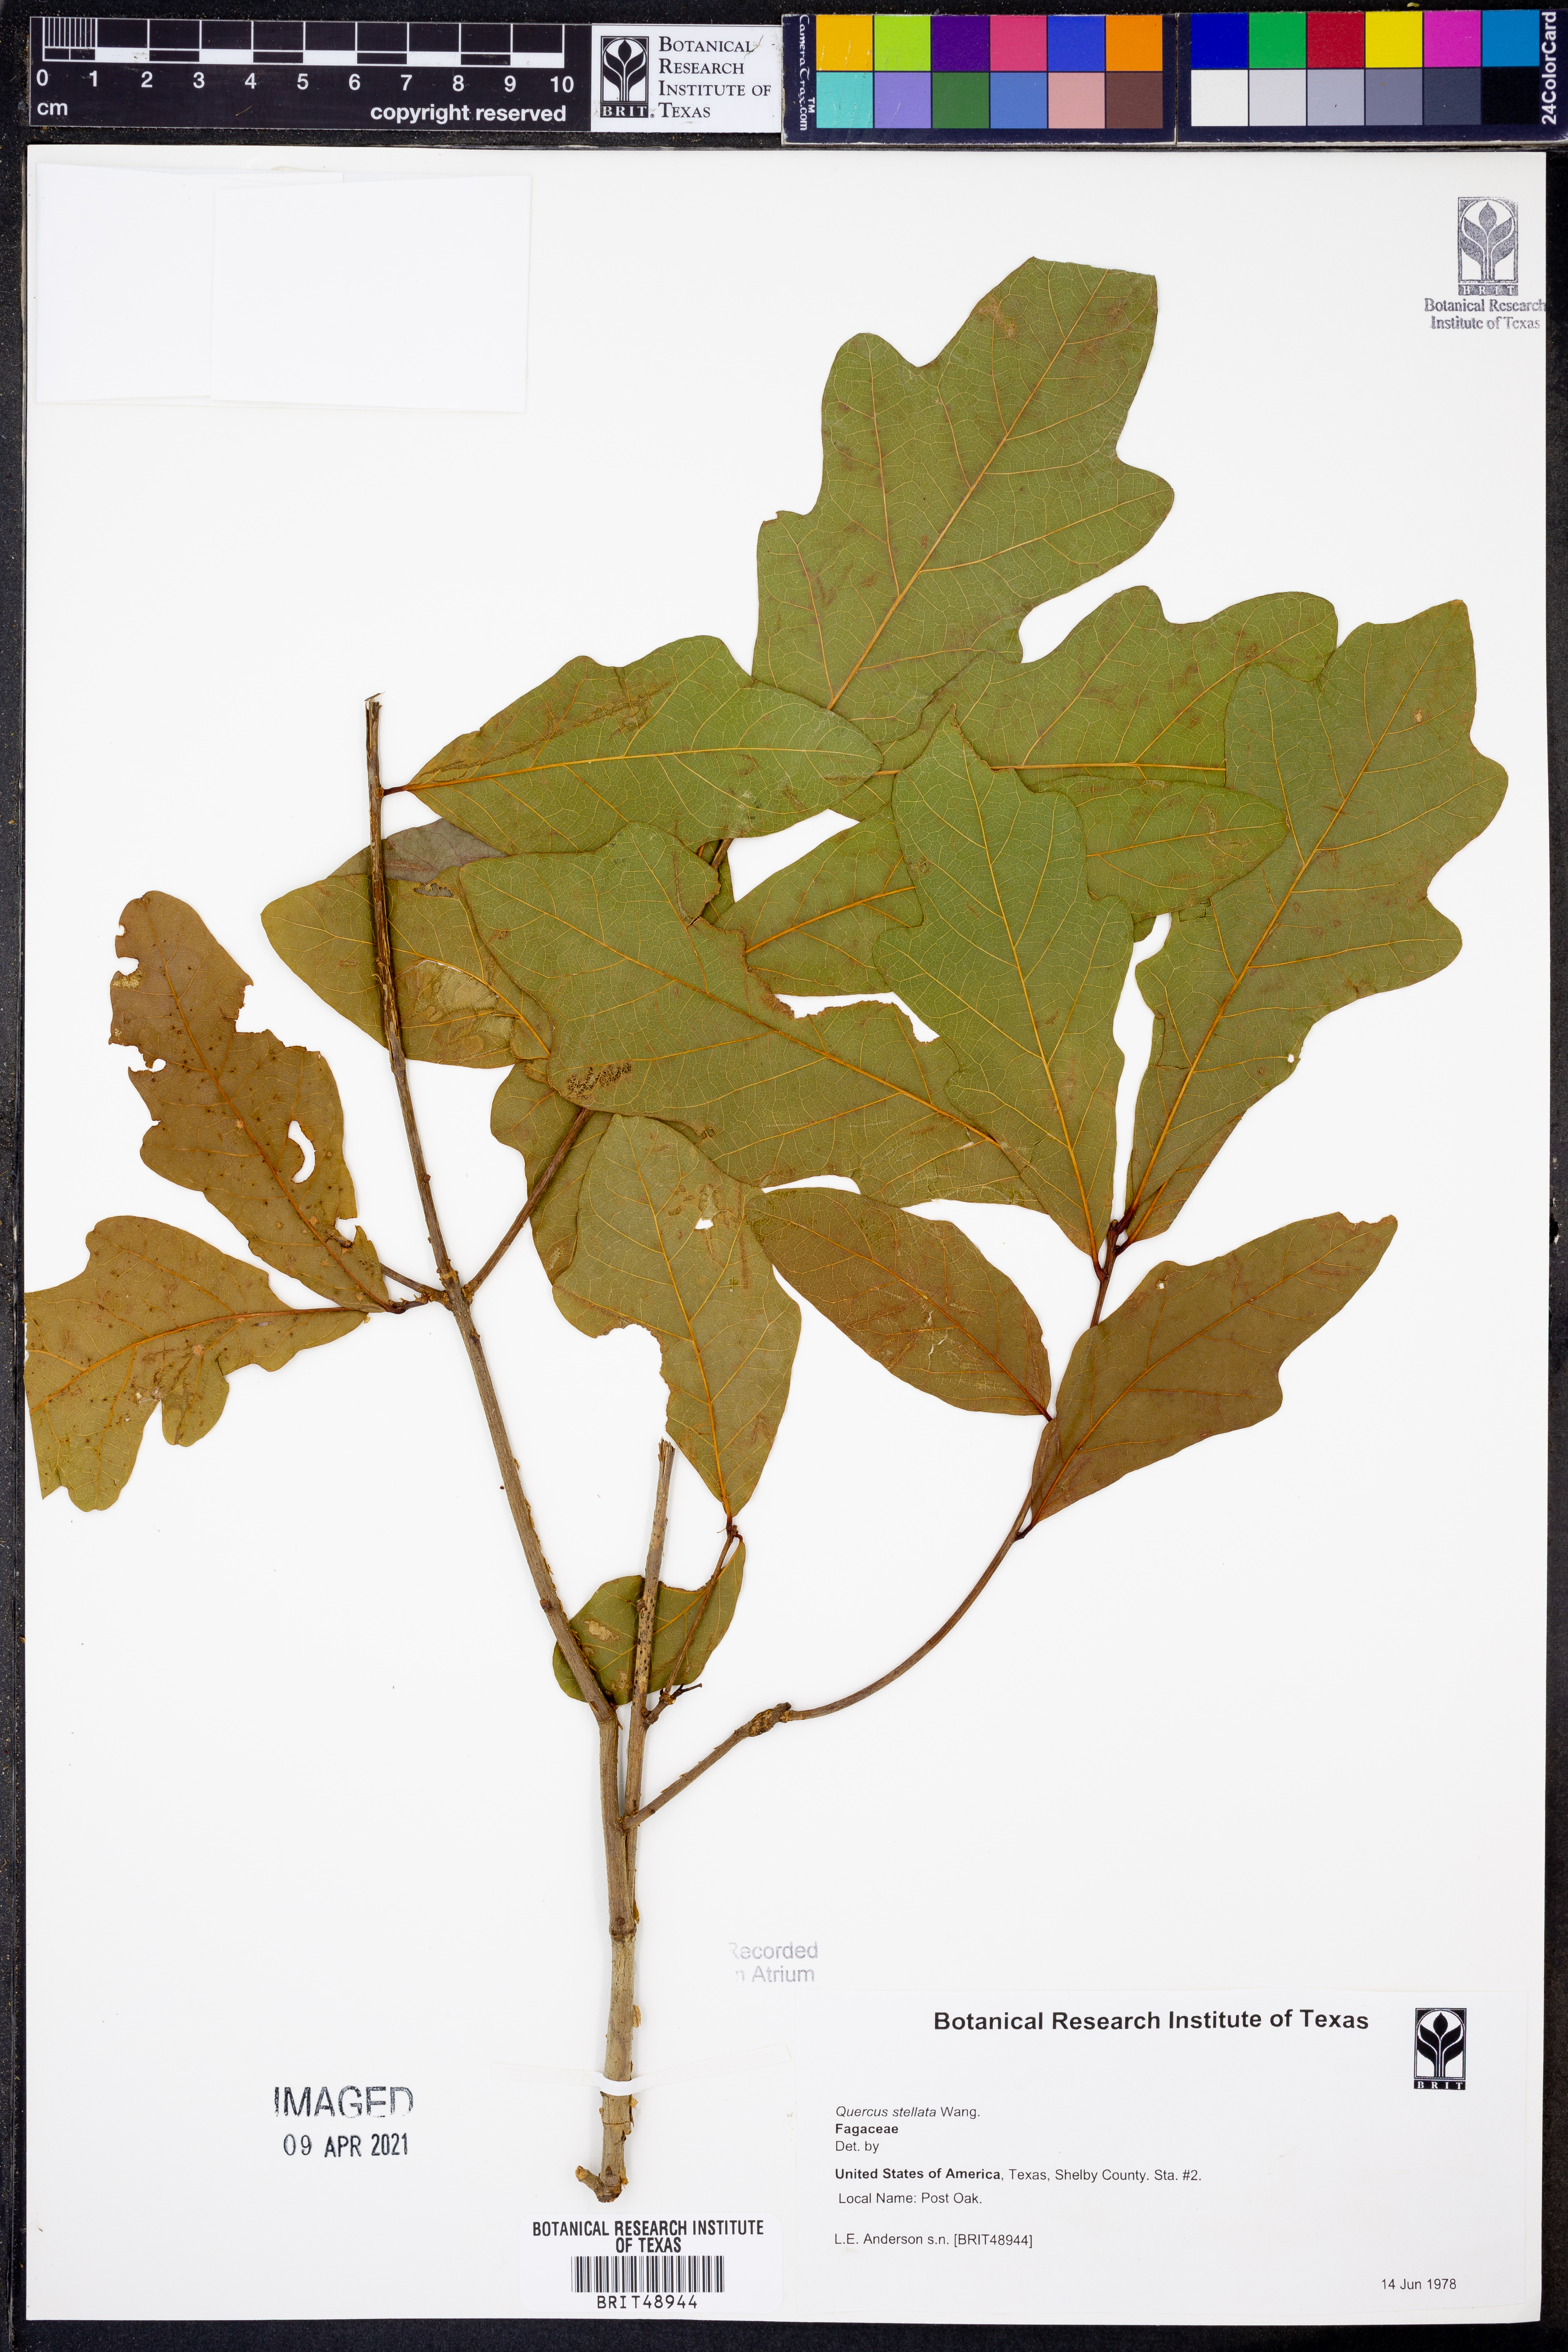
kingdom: Plantae
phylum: Tracheophyta
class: Magnoliopsida
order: Fagales
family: Fagaceae
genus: Quercus
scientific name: Quercus stellata
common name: Post oak
